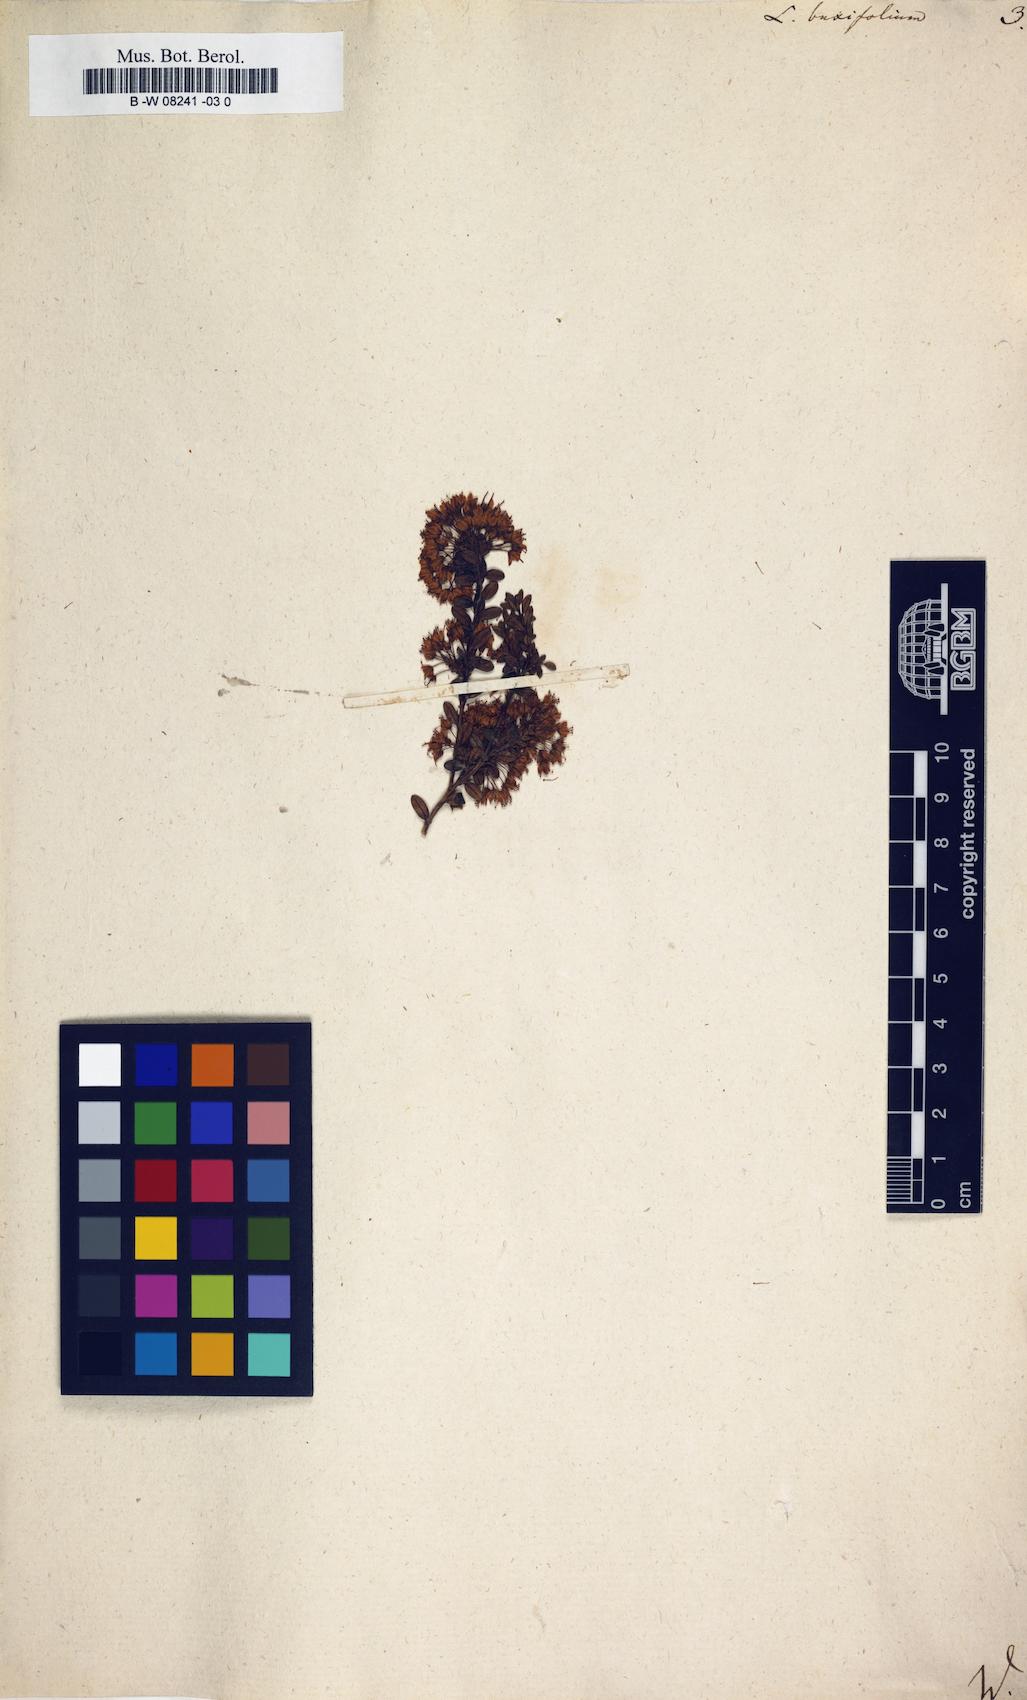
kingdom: Plantae
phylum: Tracheophyta
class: Magnoliopsida
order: Ericales
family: Ericaceae
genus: Kalmia
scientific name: Kalmia buxifolia
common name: Sandmyrtle
